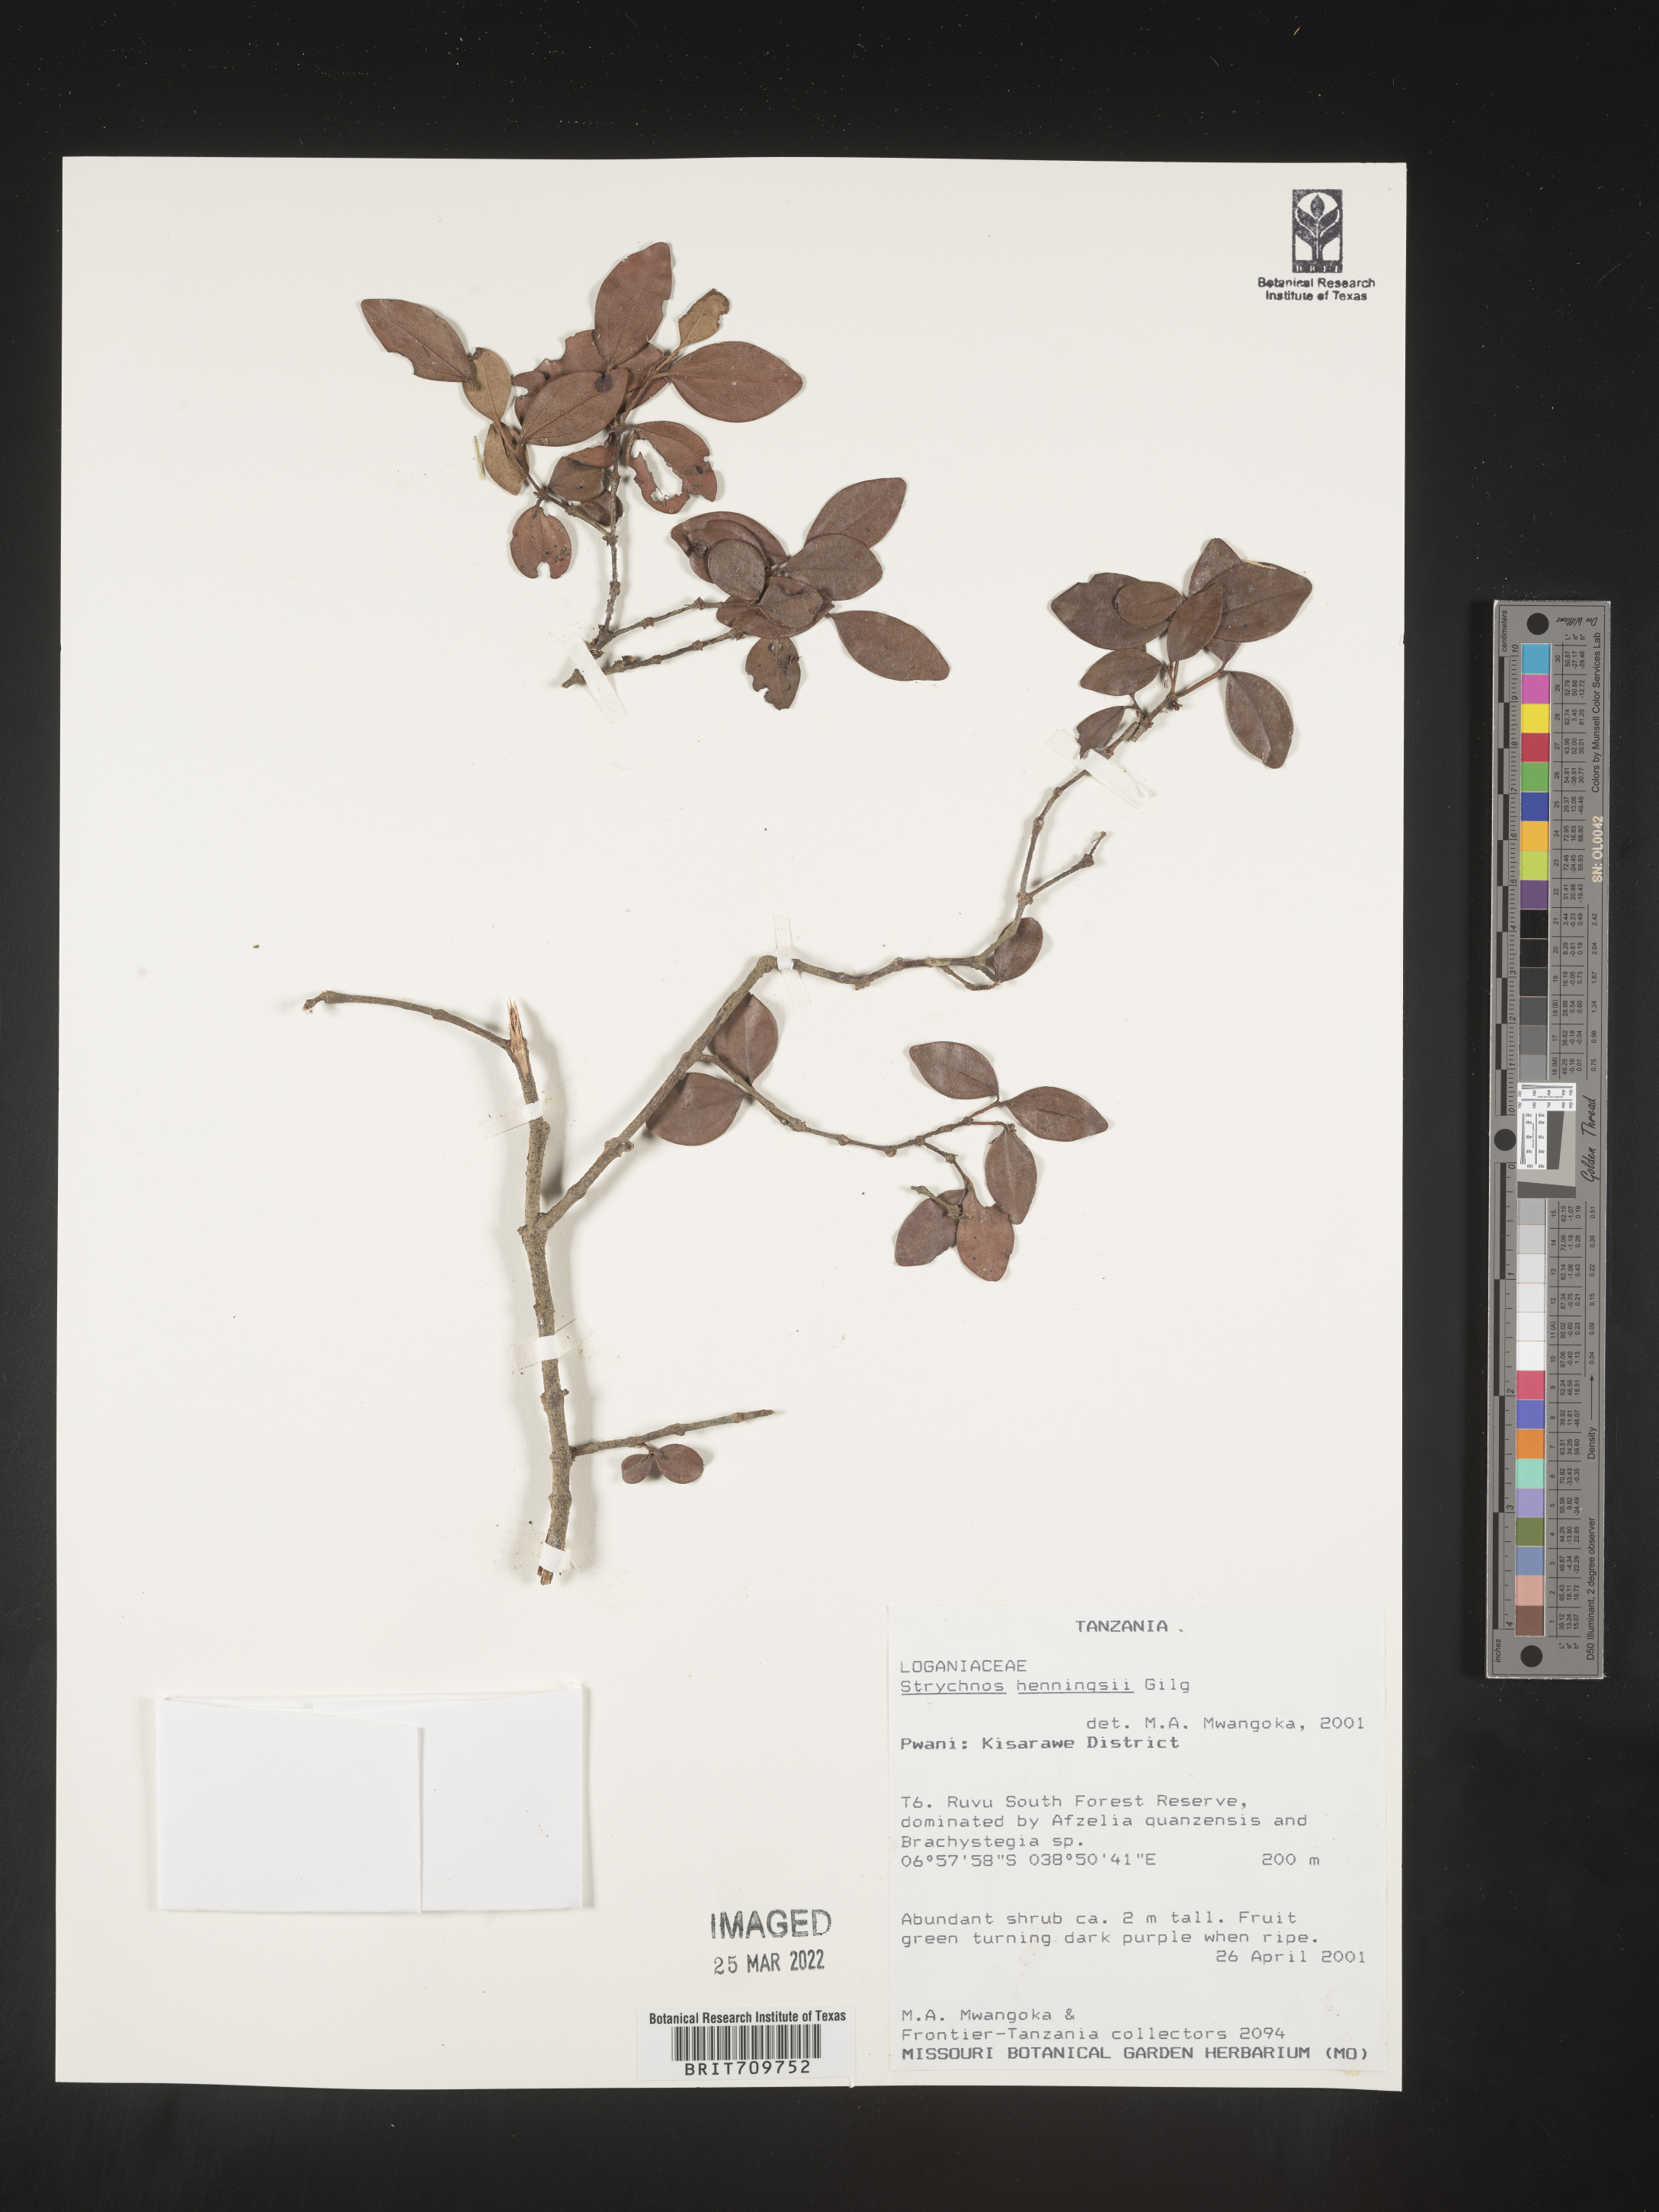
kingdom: Plantae
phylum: Tracheophyta
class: Magnoliopsida
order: Gentianales
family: Loganiaceae
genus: Strychnos
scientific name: Strychnos
